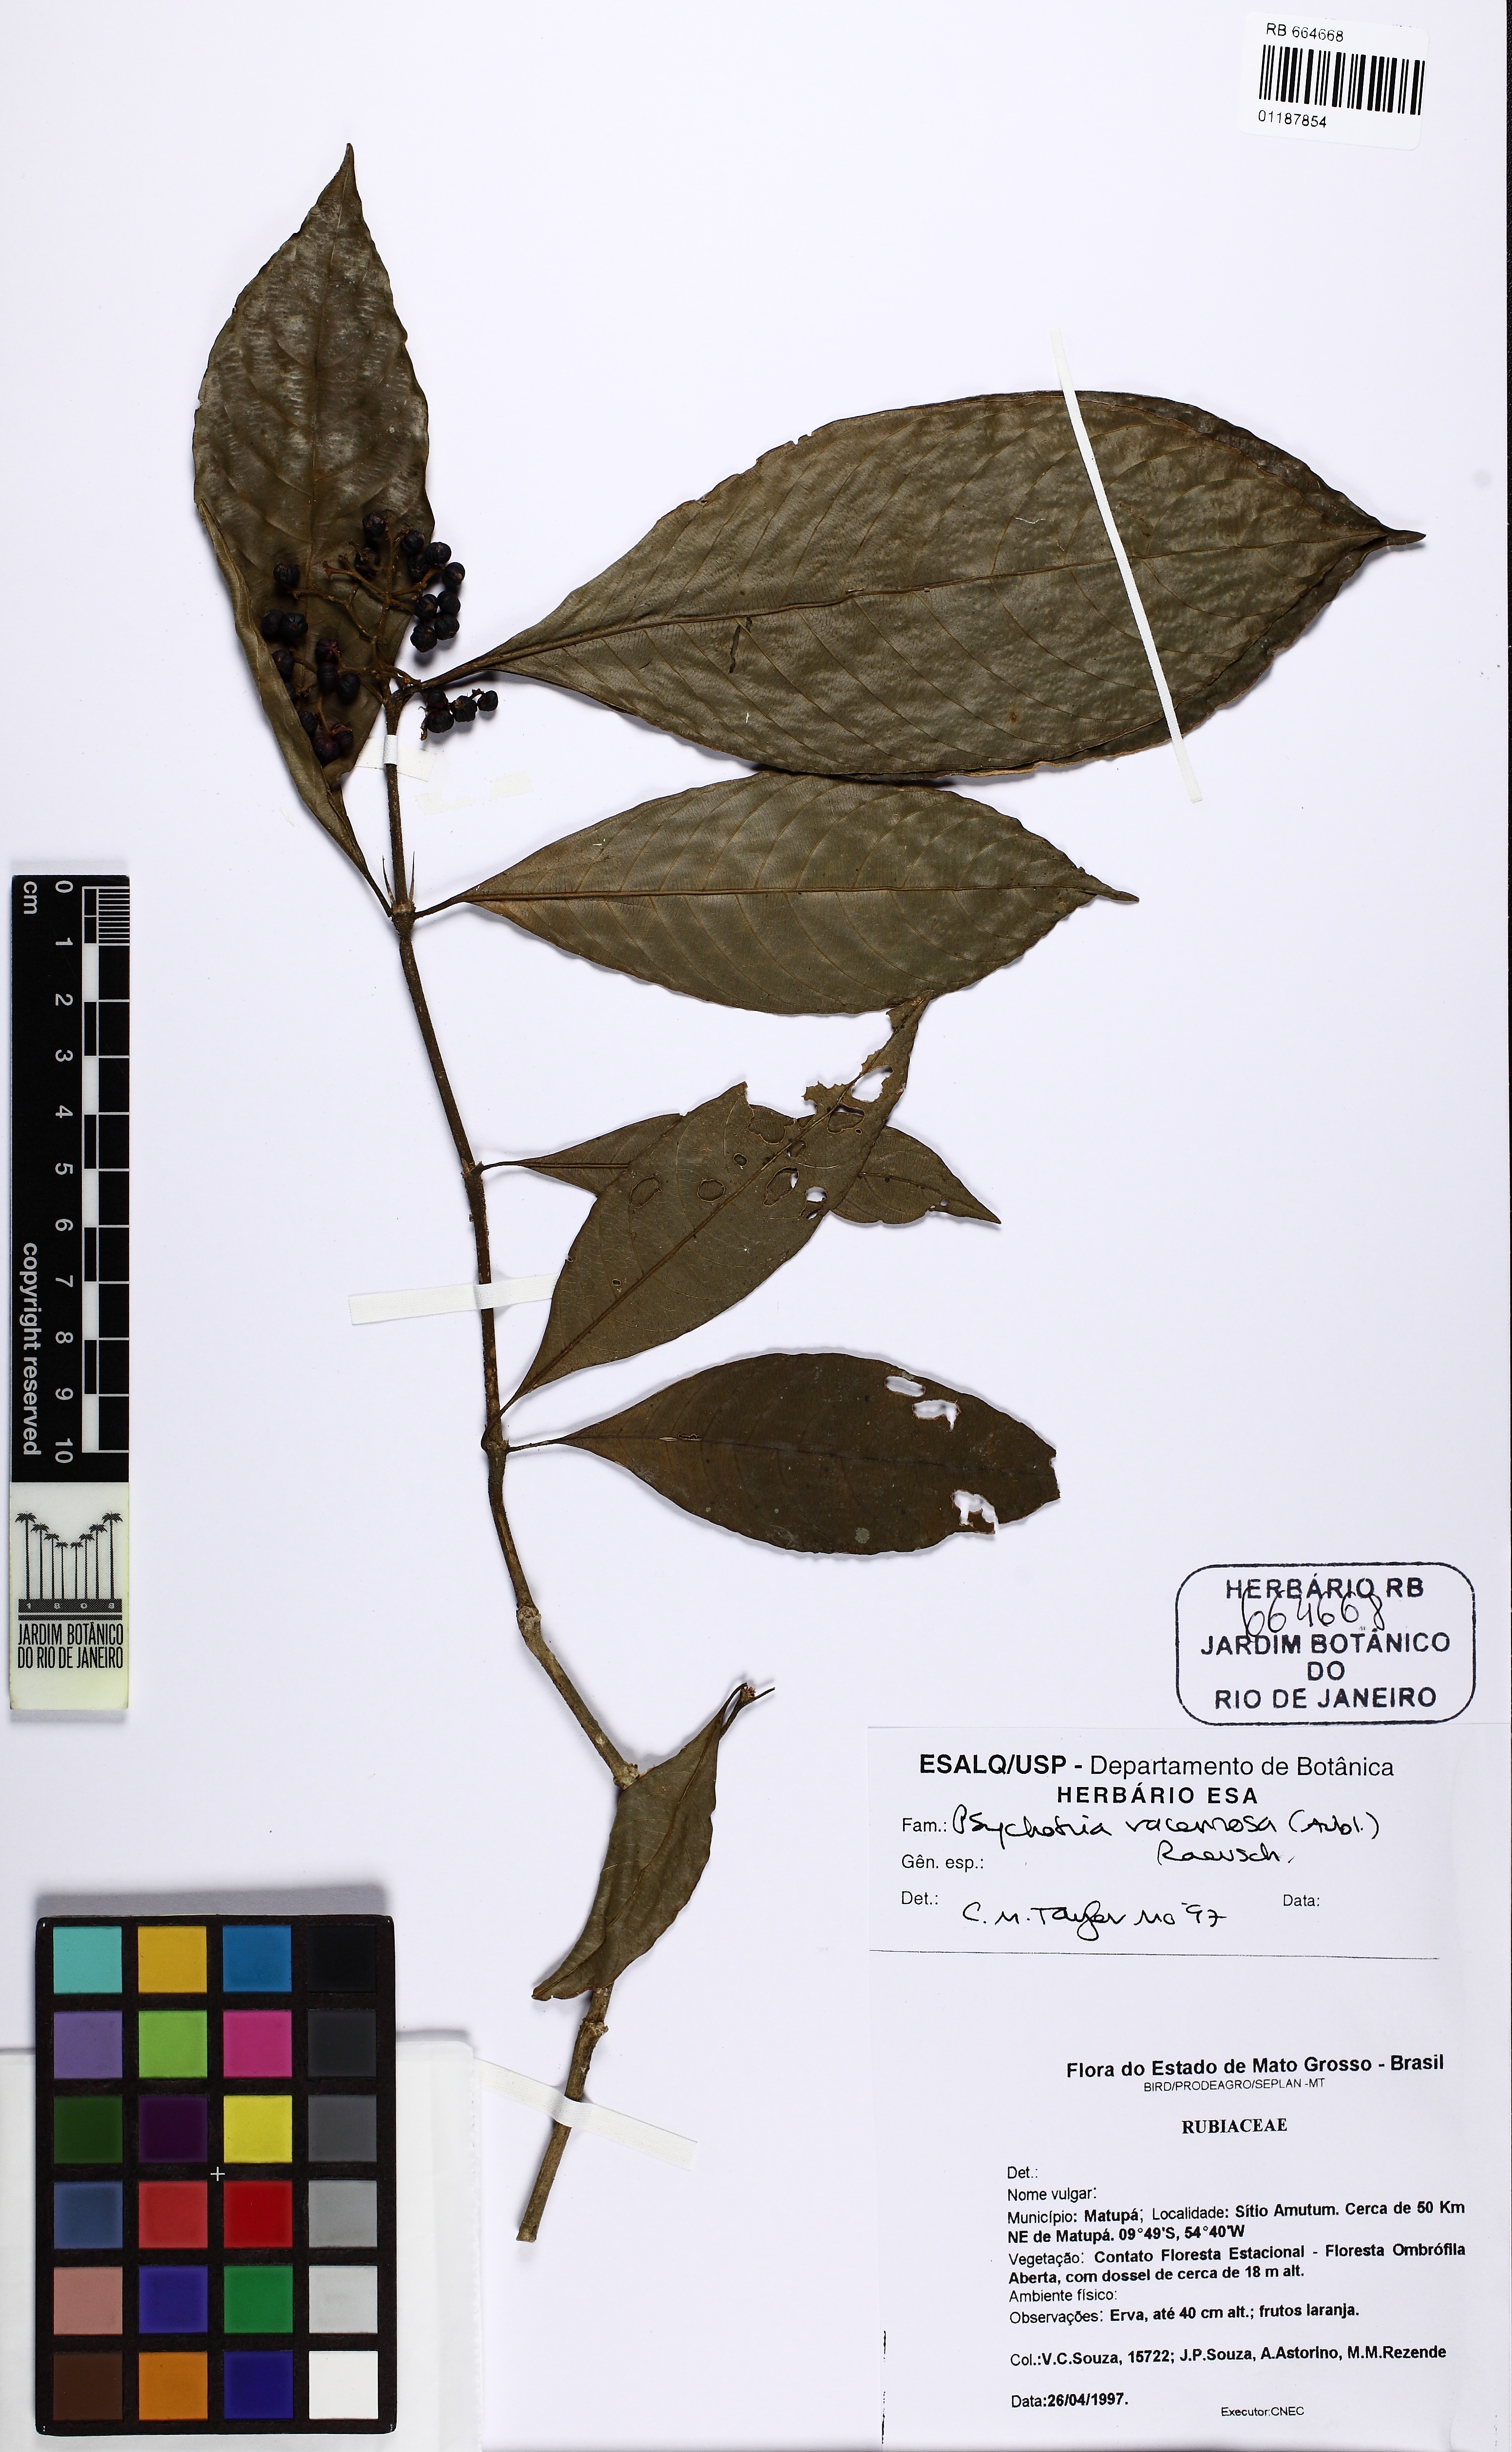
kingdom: Plantae
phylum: Tracheophyta
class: Magnoliopsida
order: Gentianales
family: Rubiaceae
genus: Palicourea
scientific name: Palicourea racemosa
